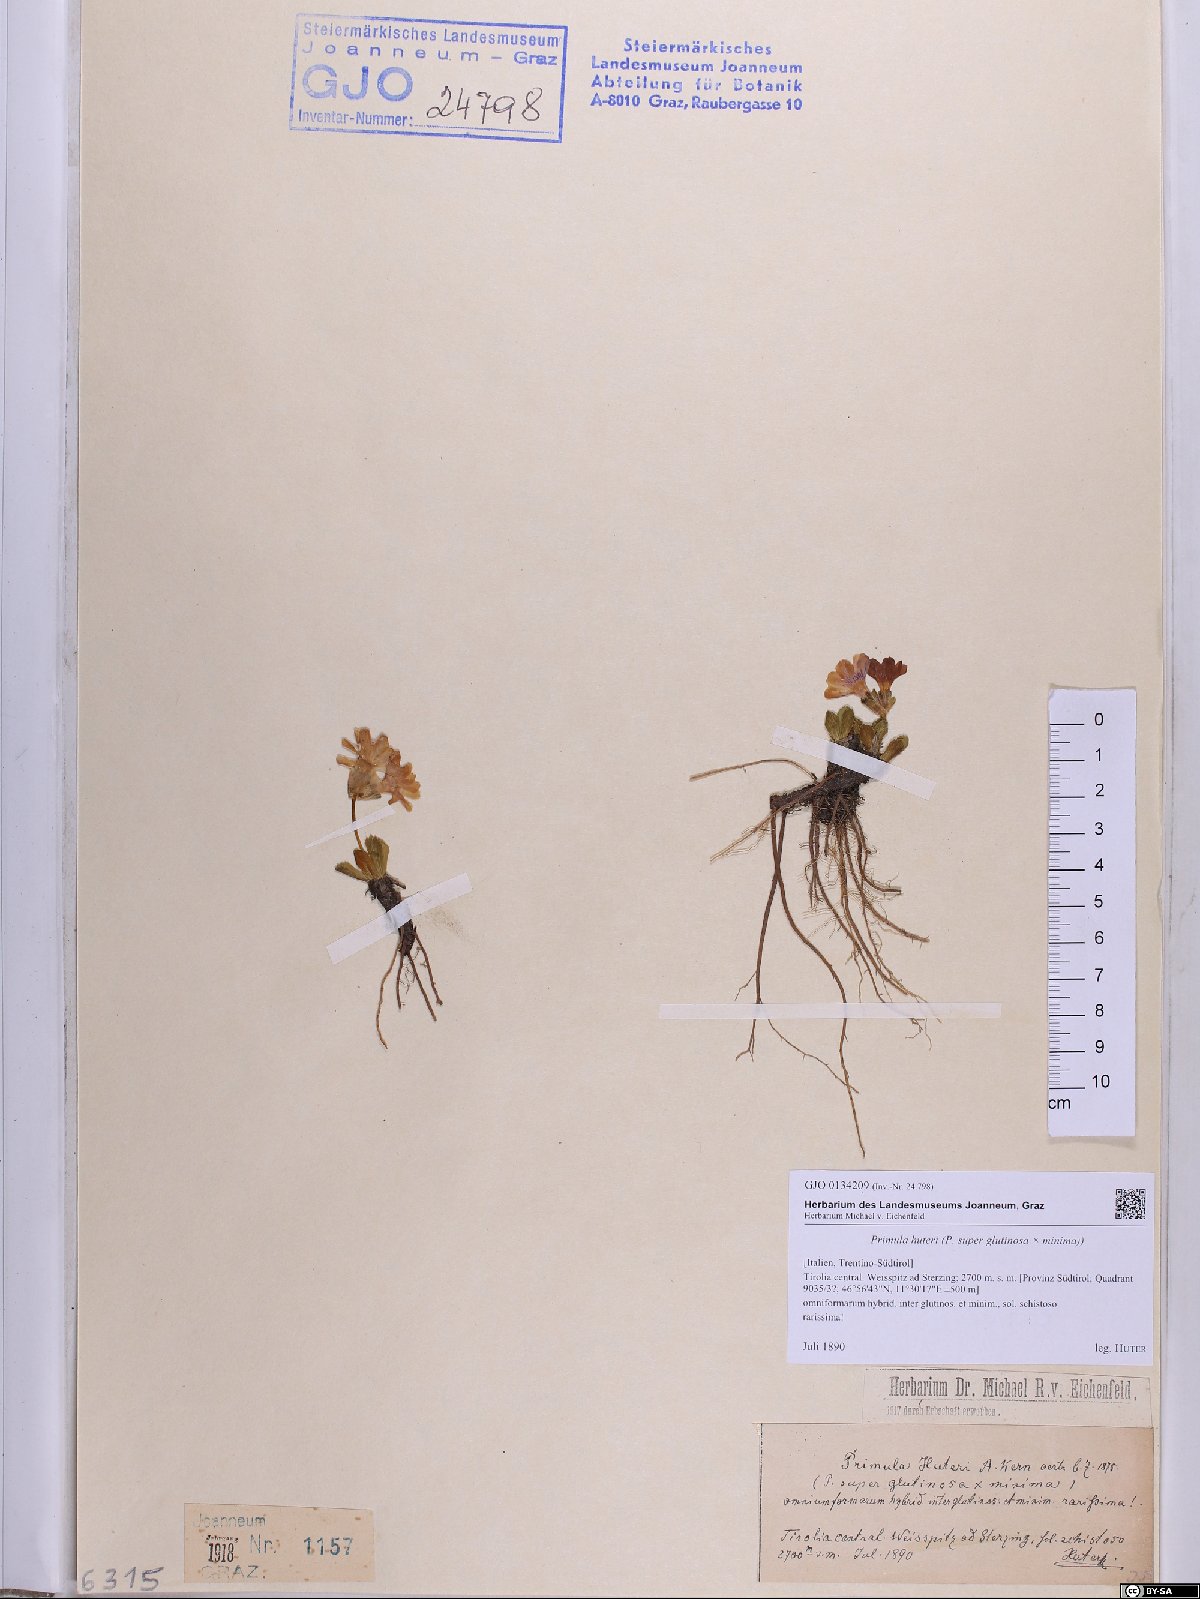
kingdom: Plantae
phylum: Tracheophyta
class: Magnoliopsida
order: Ericales
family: Primulaceae
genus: Primula
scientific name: Primula floerkeana
